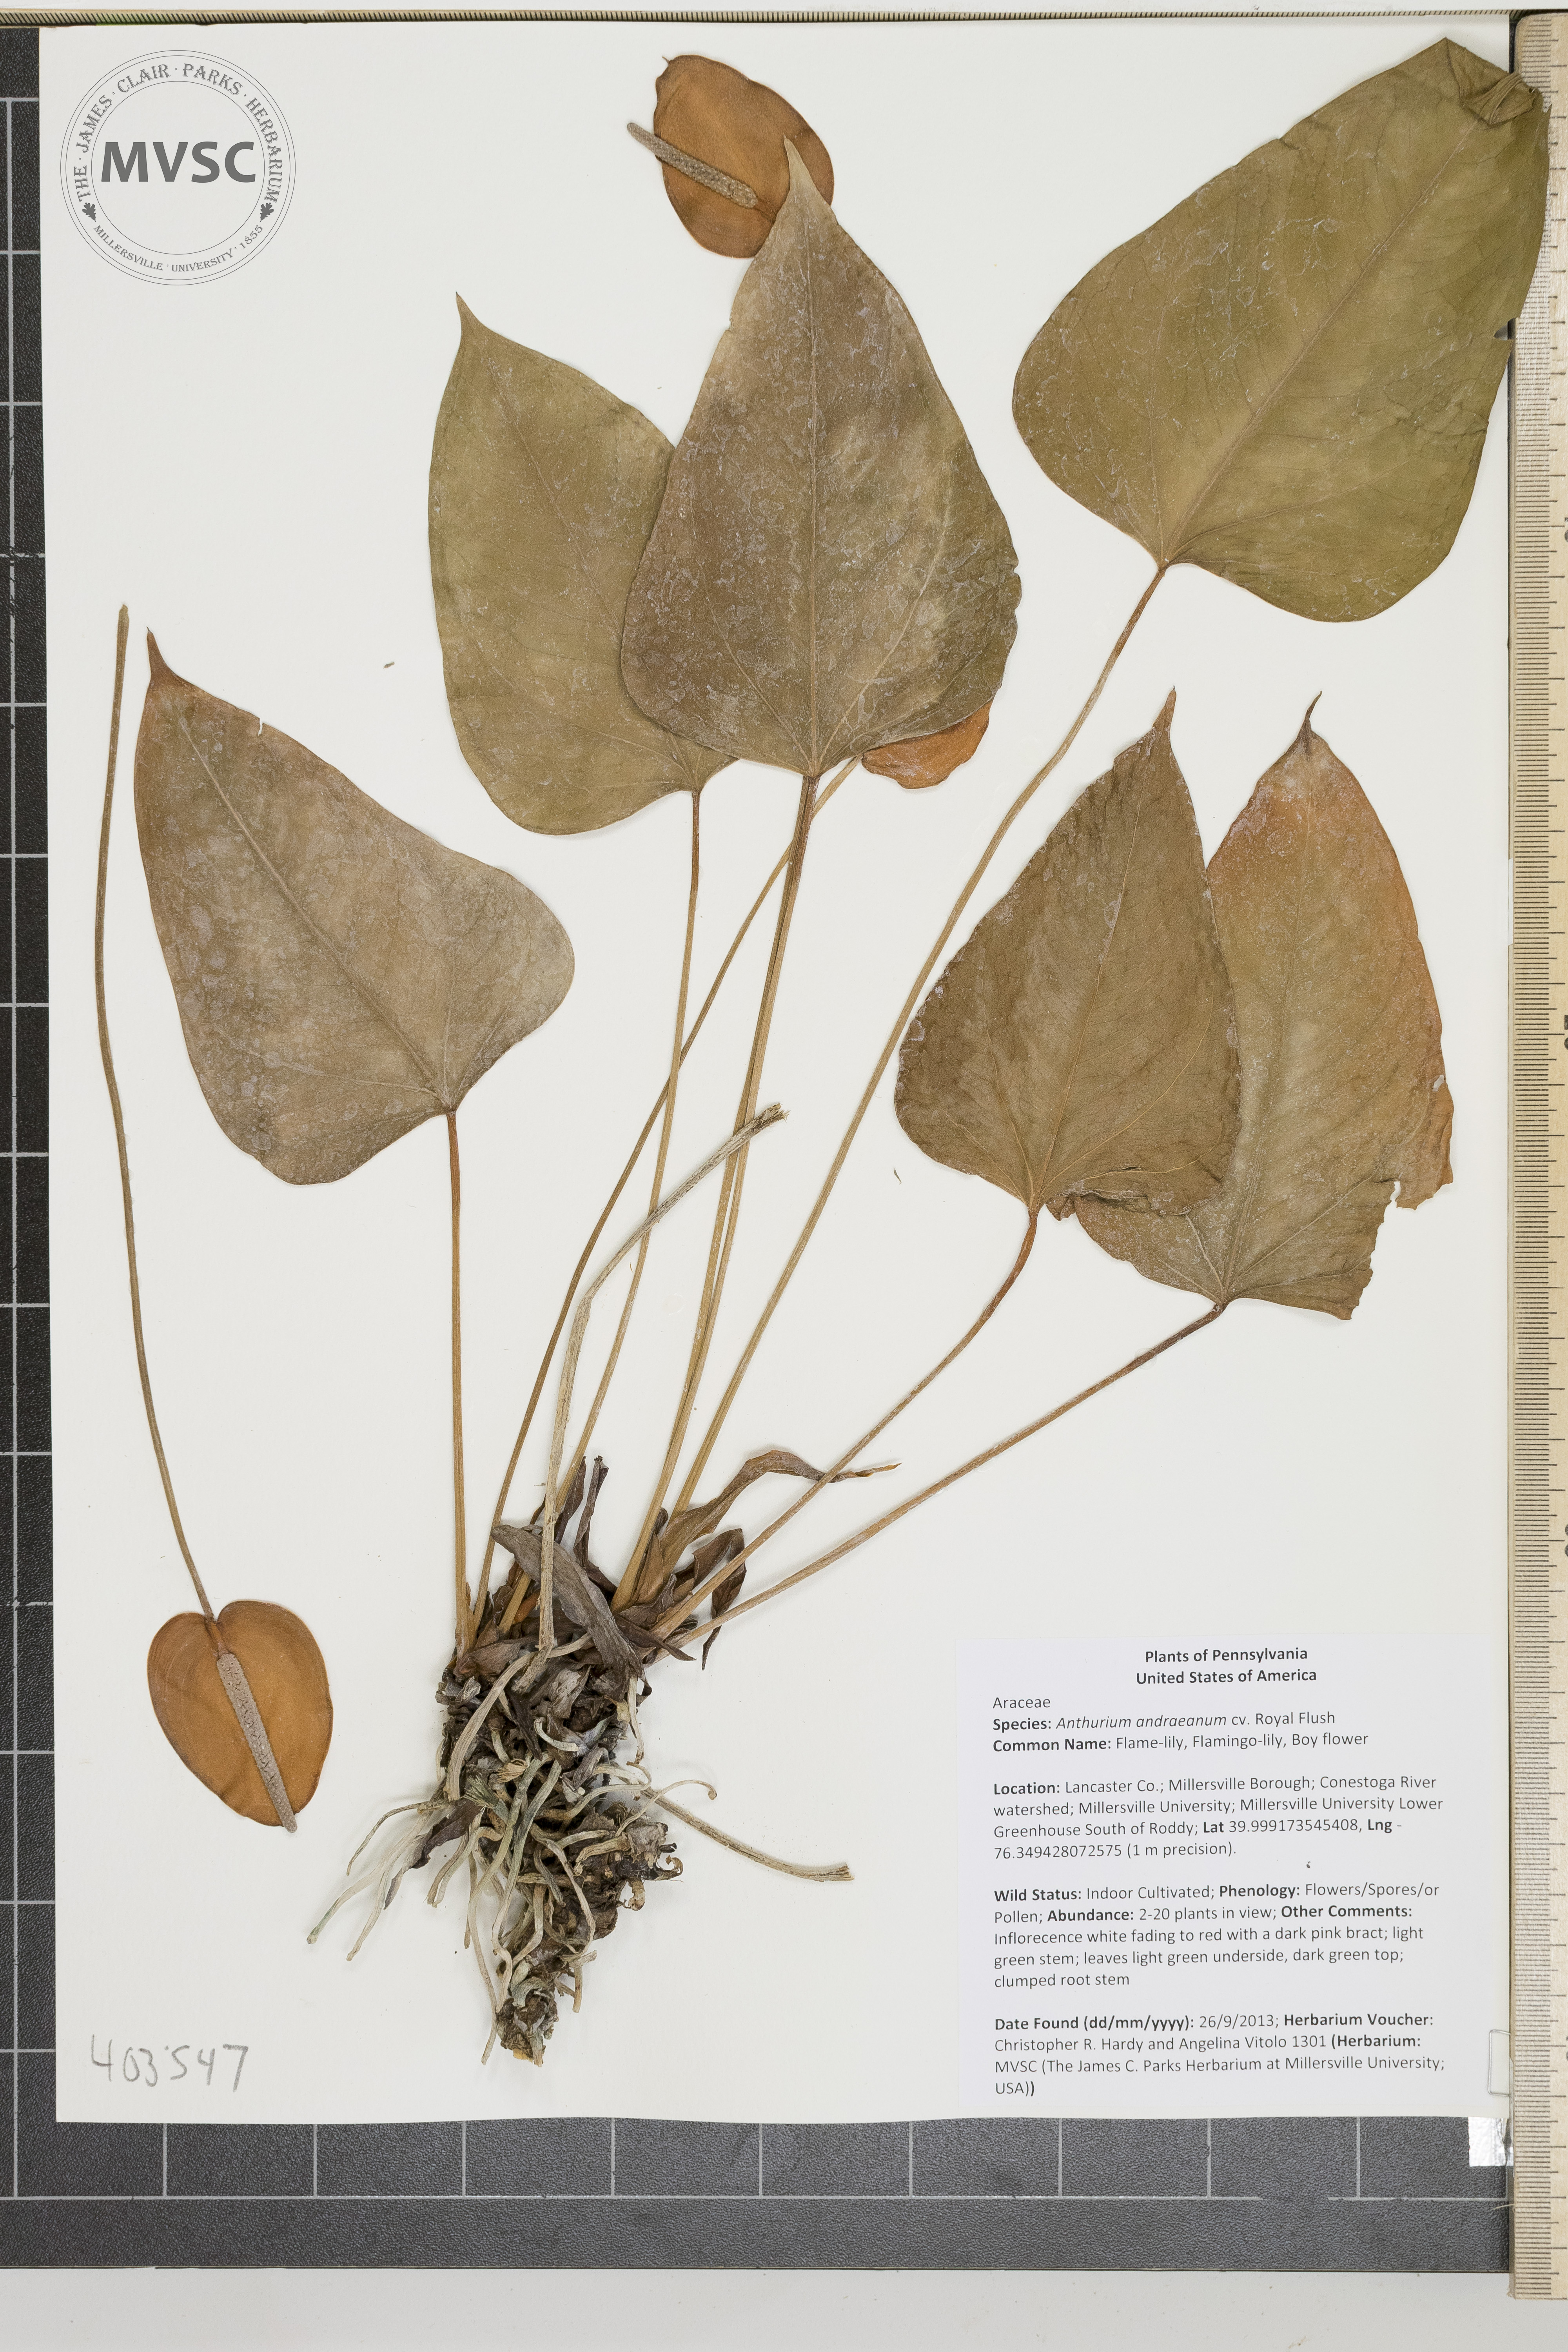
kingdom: Plantae
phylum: Tracheophyta
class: Liliopsida
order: Alismatales
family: Araceae
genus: Anthurium
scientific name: Anthurium andraeanum
